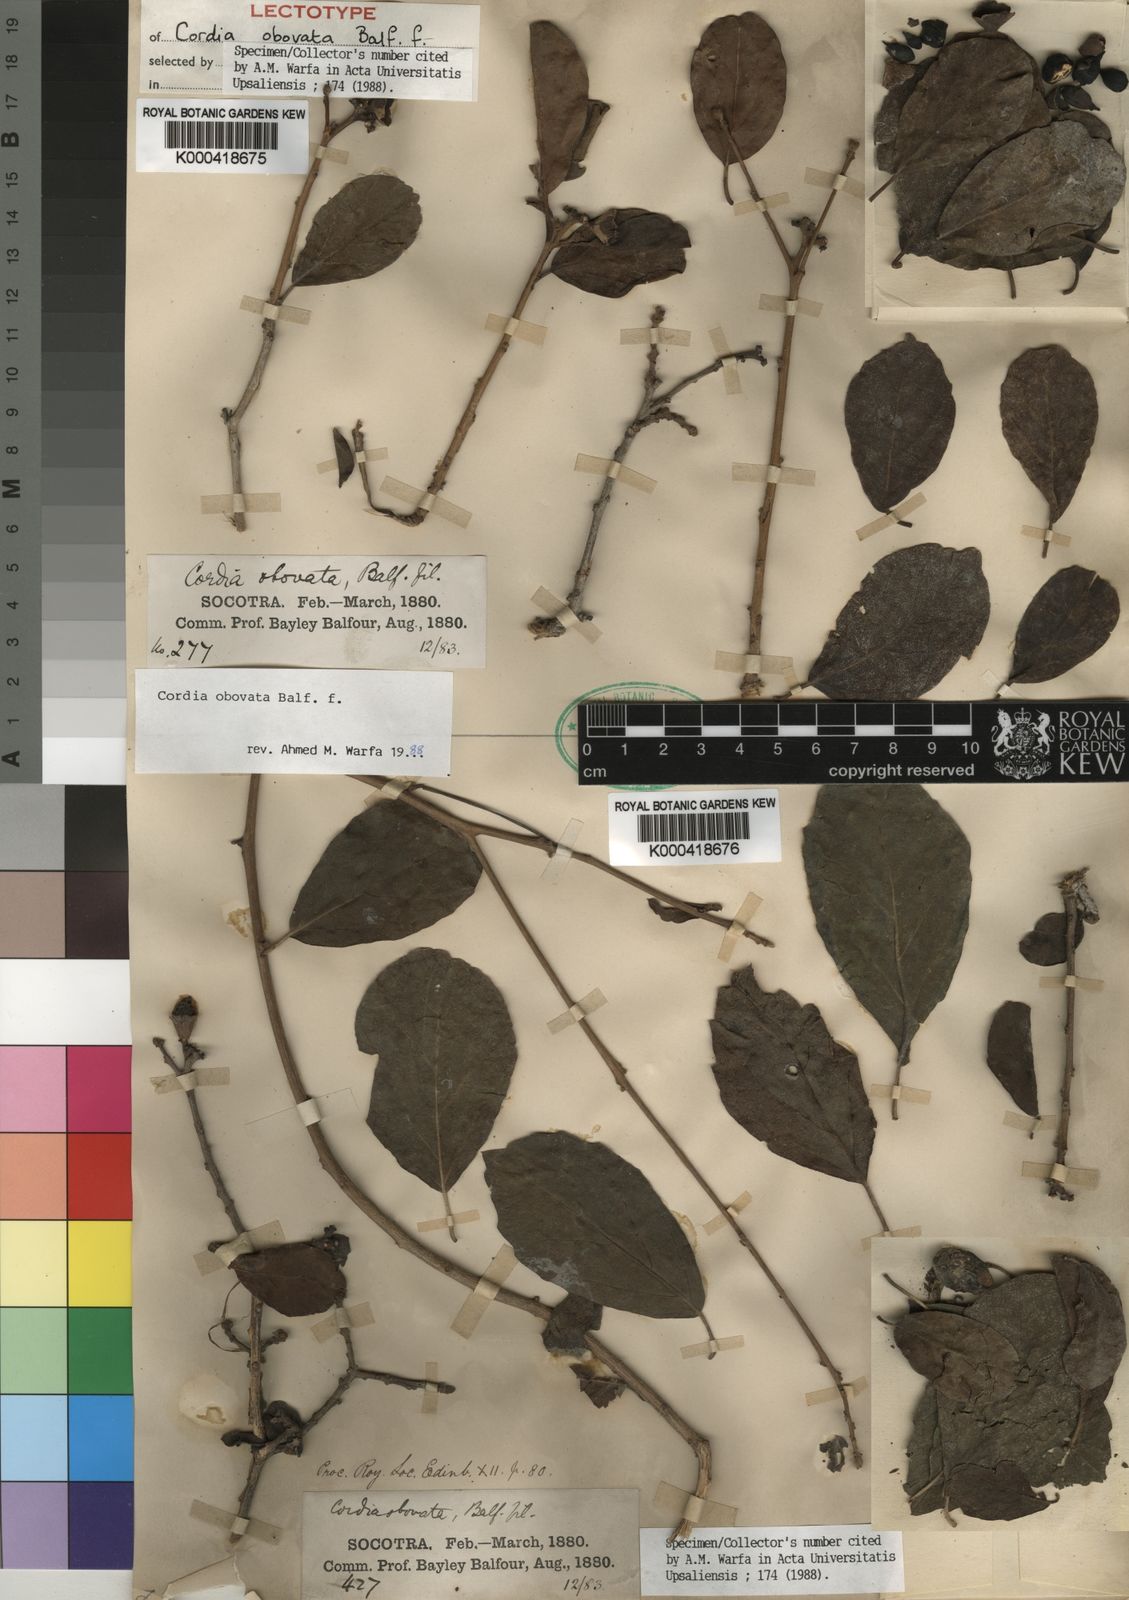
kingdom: Plantae
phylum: Tracheophyta
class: Magnoliopsida
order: Boraginales
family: Cordiaceae
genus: Cordia
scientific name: Cordia obovata
